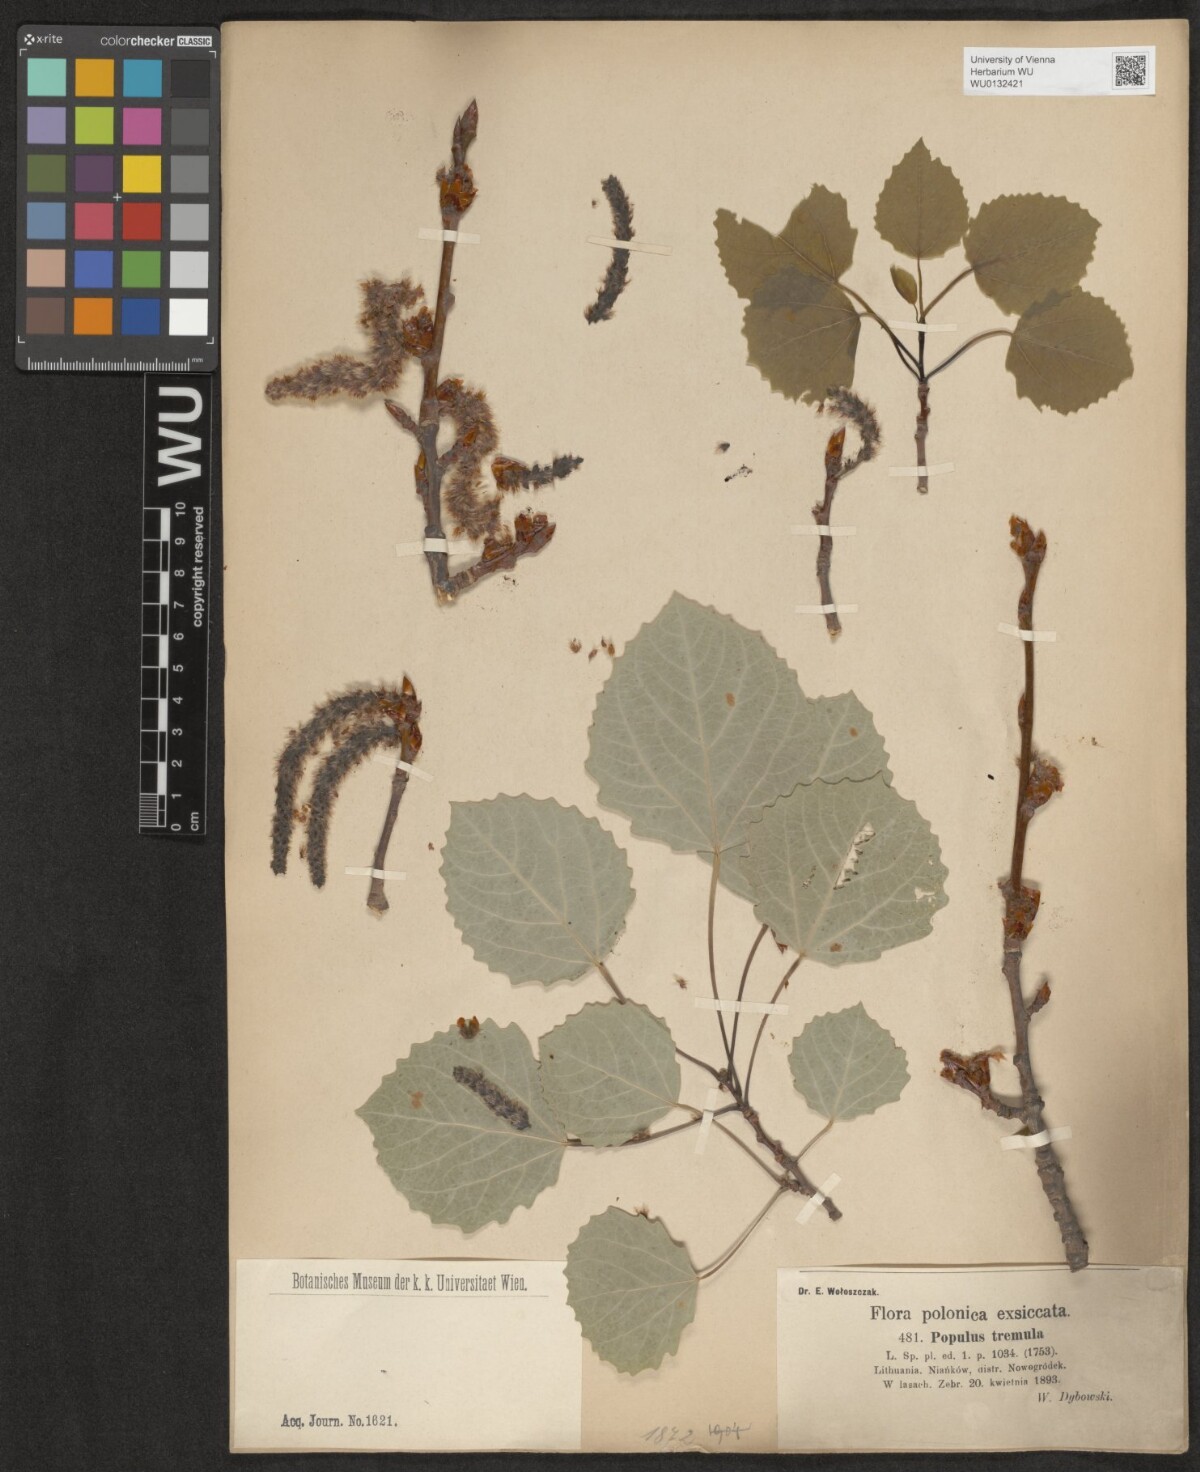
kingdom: Plantae
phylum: Tracheophyta
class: Magnoliopsida
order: Malpighiales
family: Salicaceae
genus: Populus
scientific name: Populus tremula
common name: European aspen
